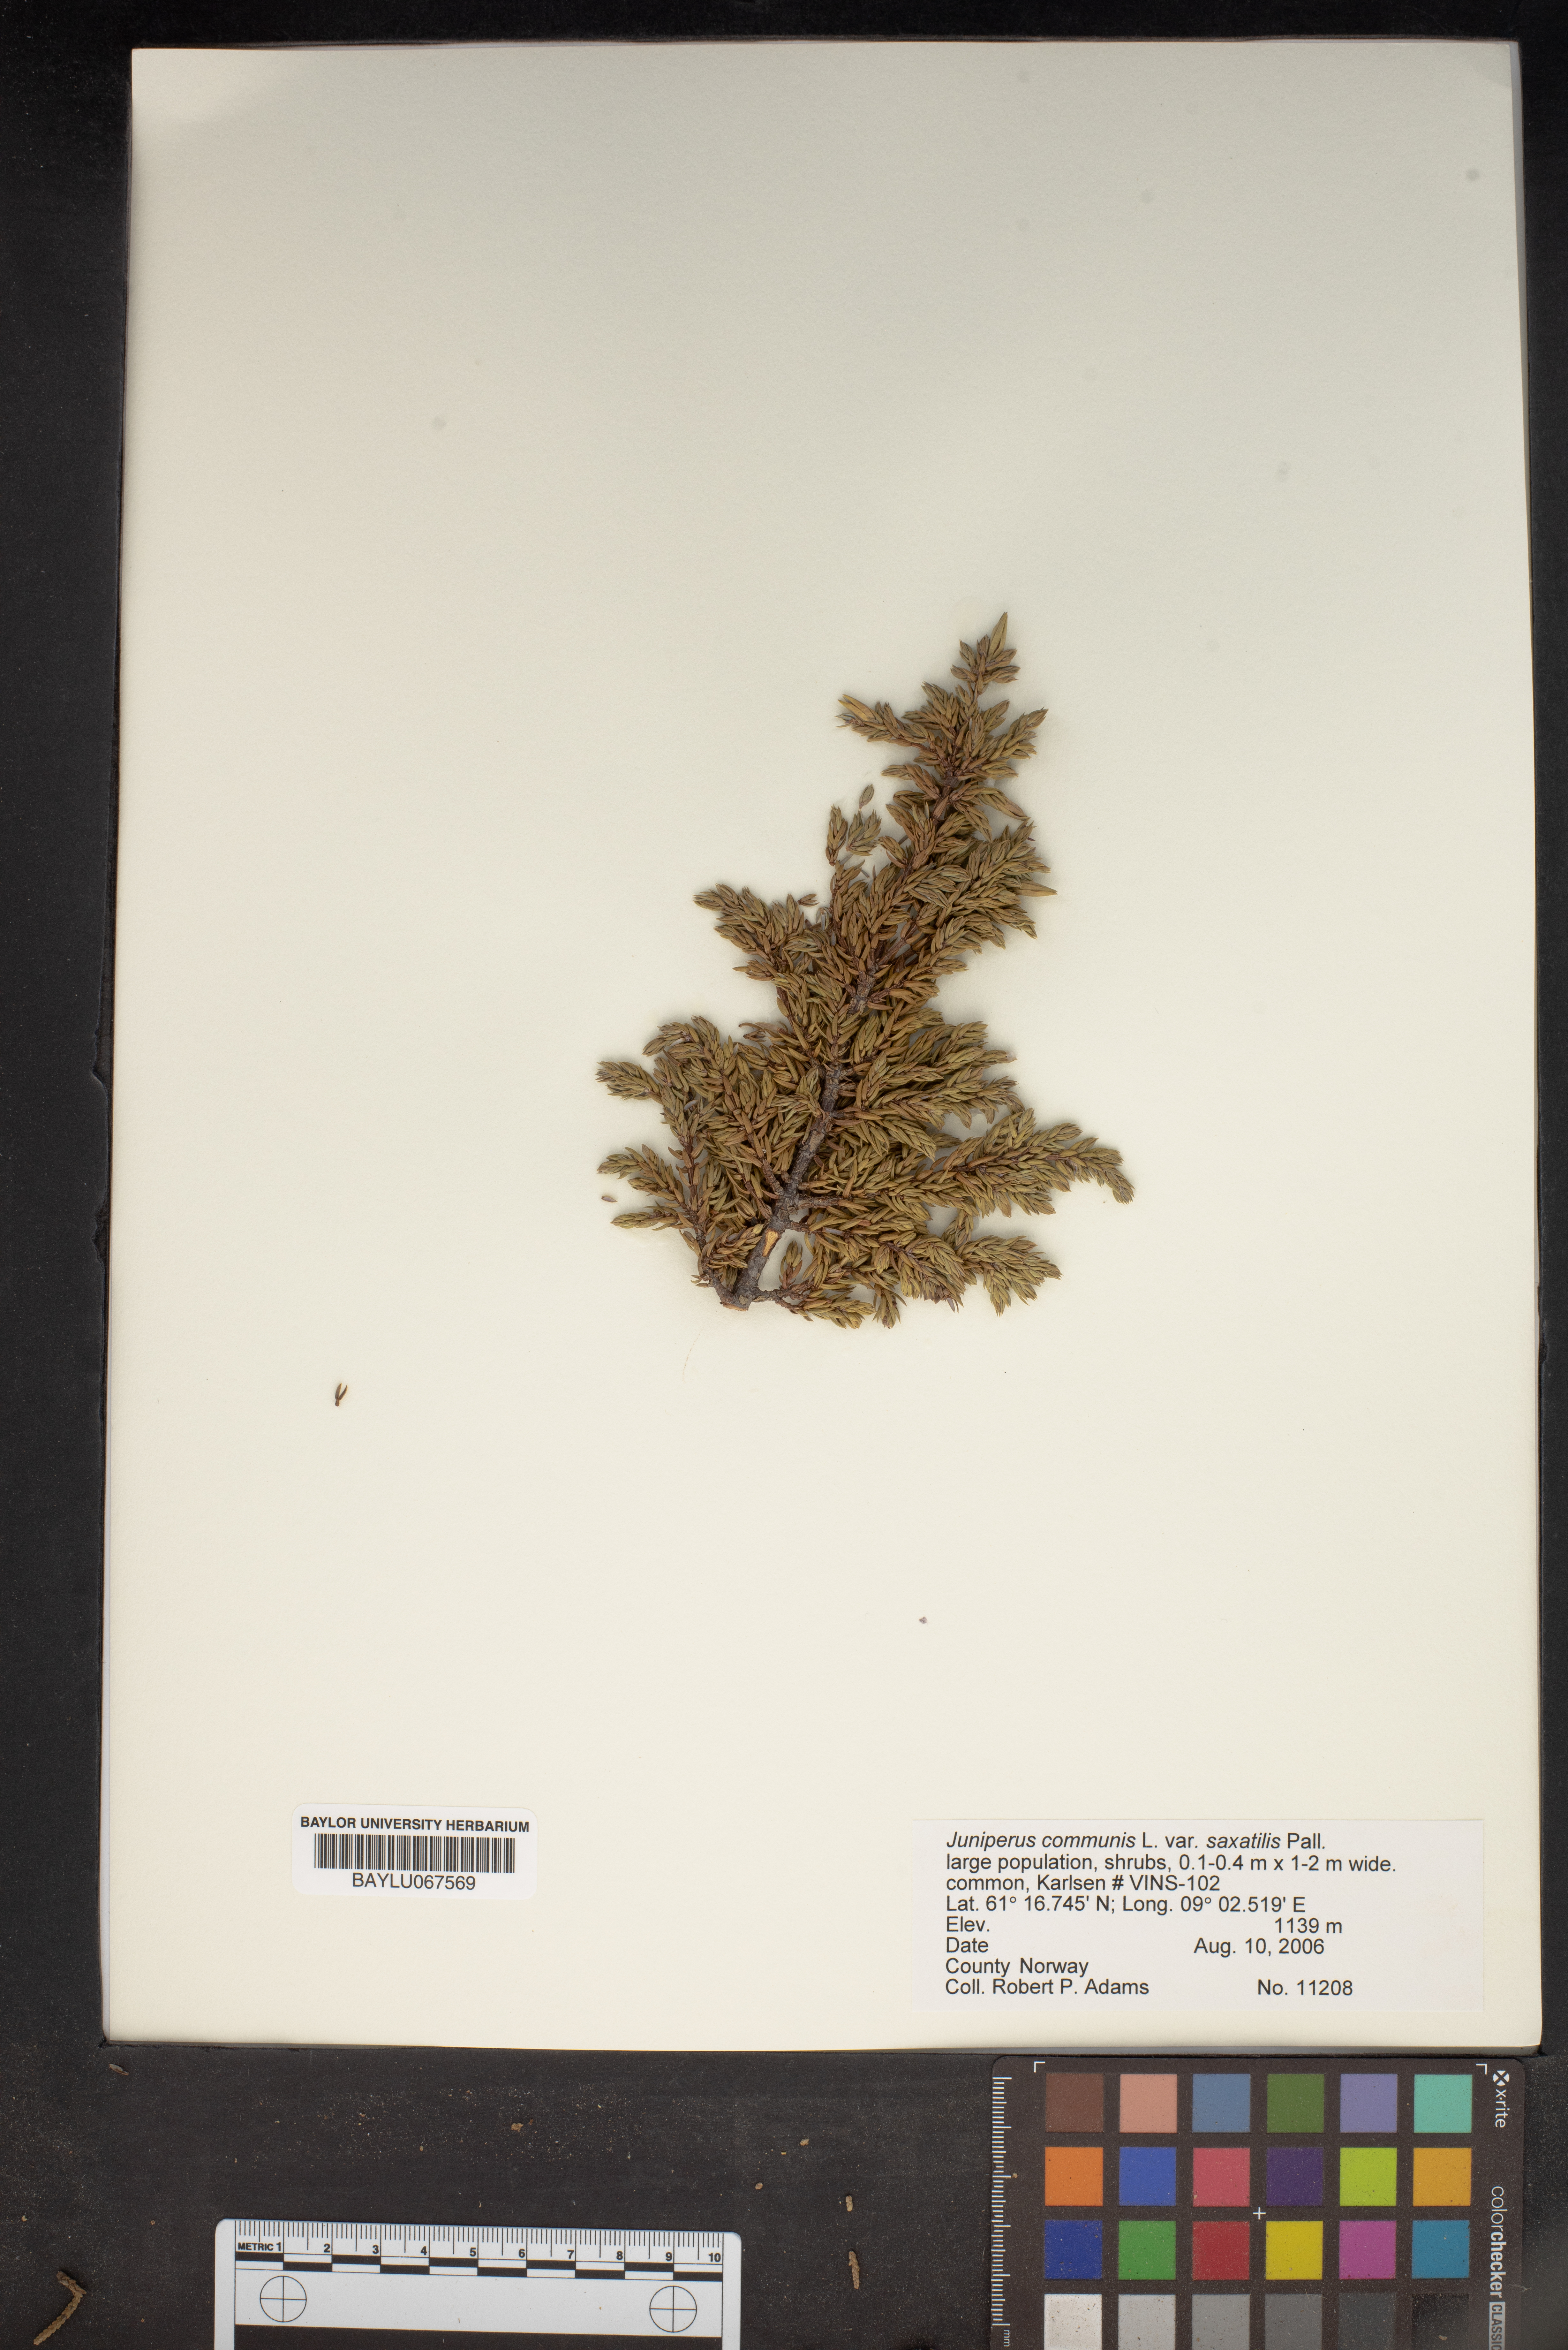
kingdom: Plantae
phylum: Tracheophyta
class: Pinopsida
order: Pinales
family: Cupressaceae
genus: Juniperus
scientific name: Juniperus communis
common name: Common juniper
